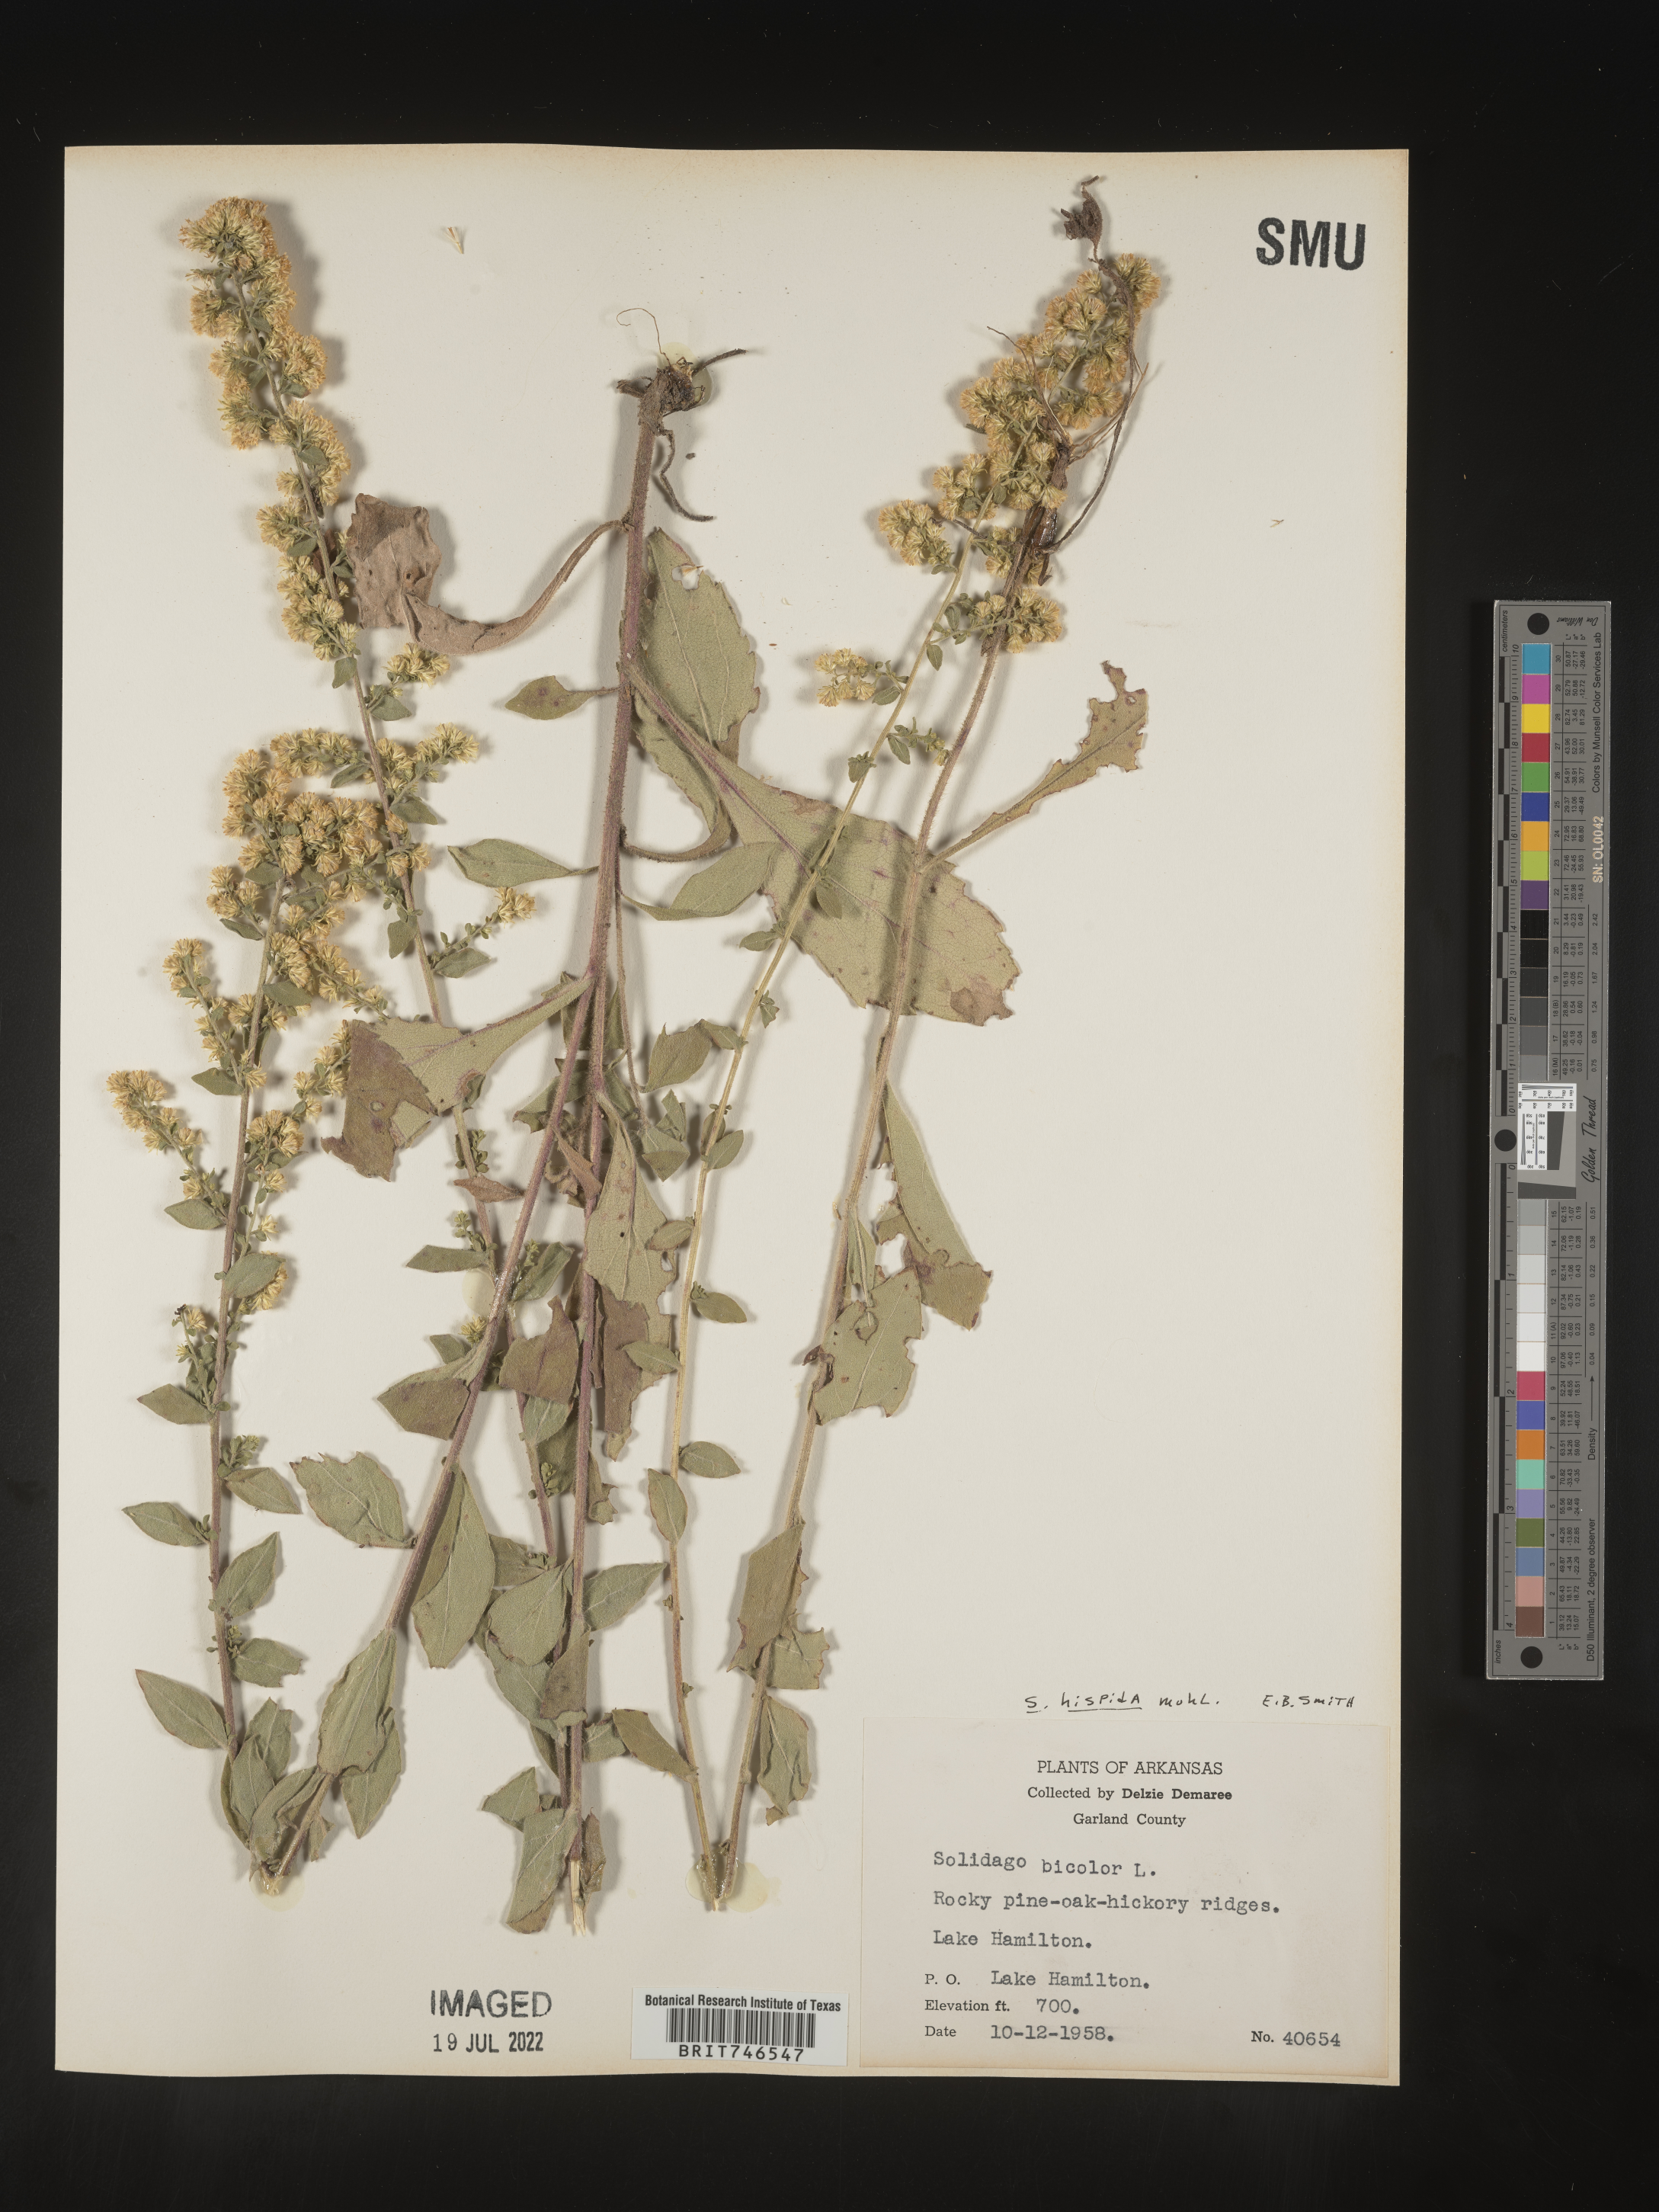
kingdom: Plantae
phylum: Tracheophyta
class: Magnoliopsida
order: Asterales
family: Asteraceae
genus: Solidago
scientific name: Solidago hispida
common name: Hairy goldenrod
